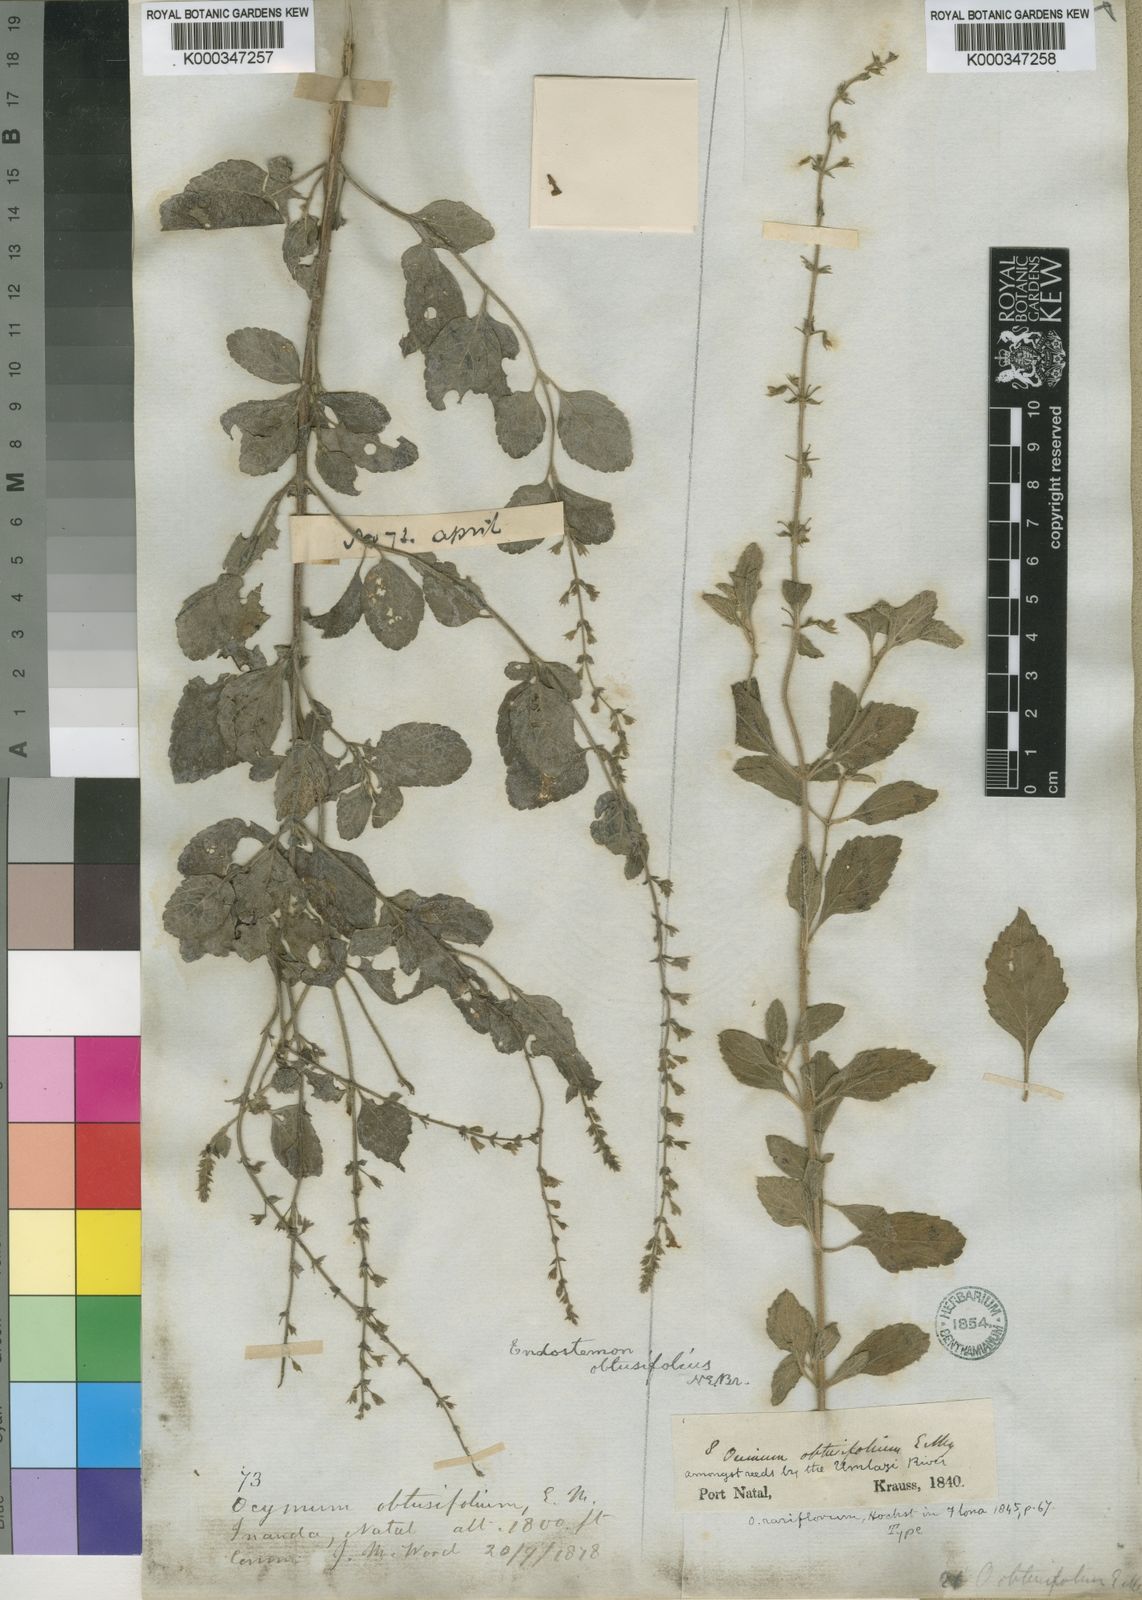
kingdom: Plantae
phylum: Tracheophyta
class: Magnoliopsida
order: Lamiales
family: Lamiaceae
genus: Endostemon
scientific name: Endostemon obtusifolius
